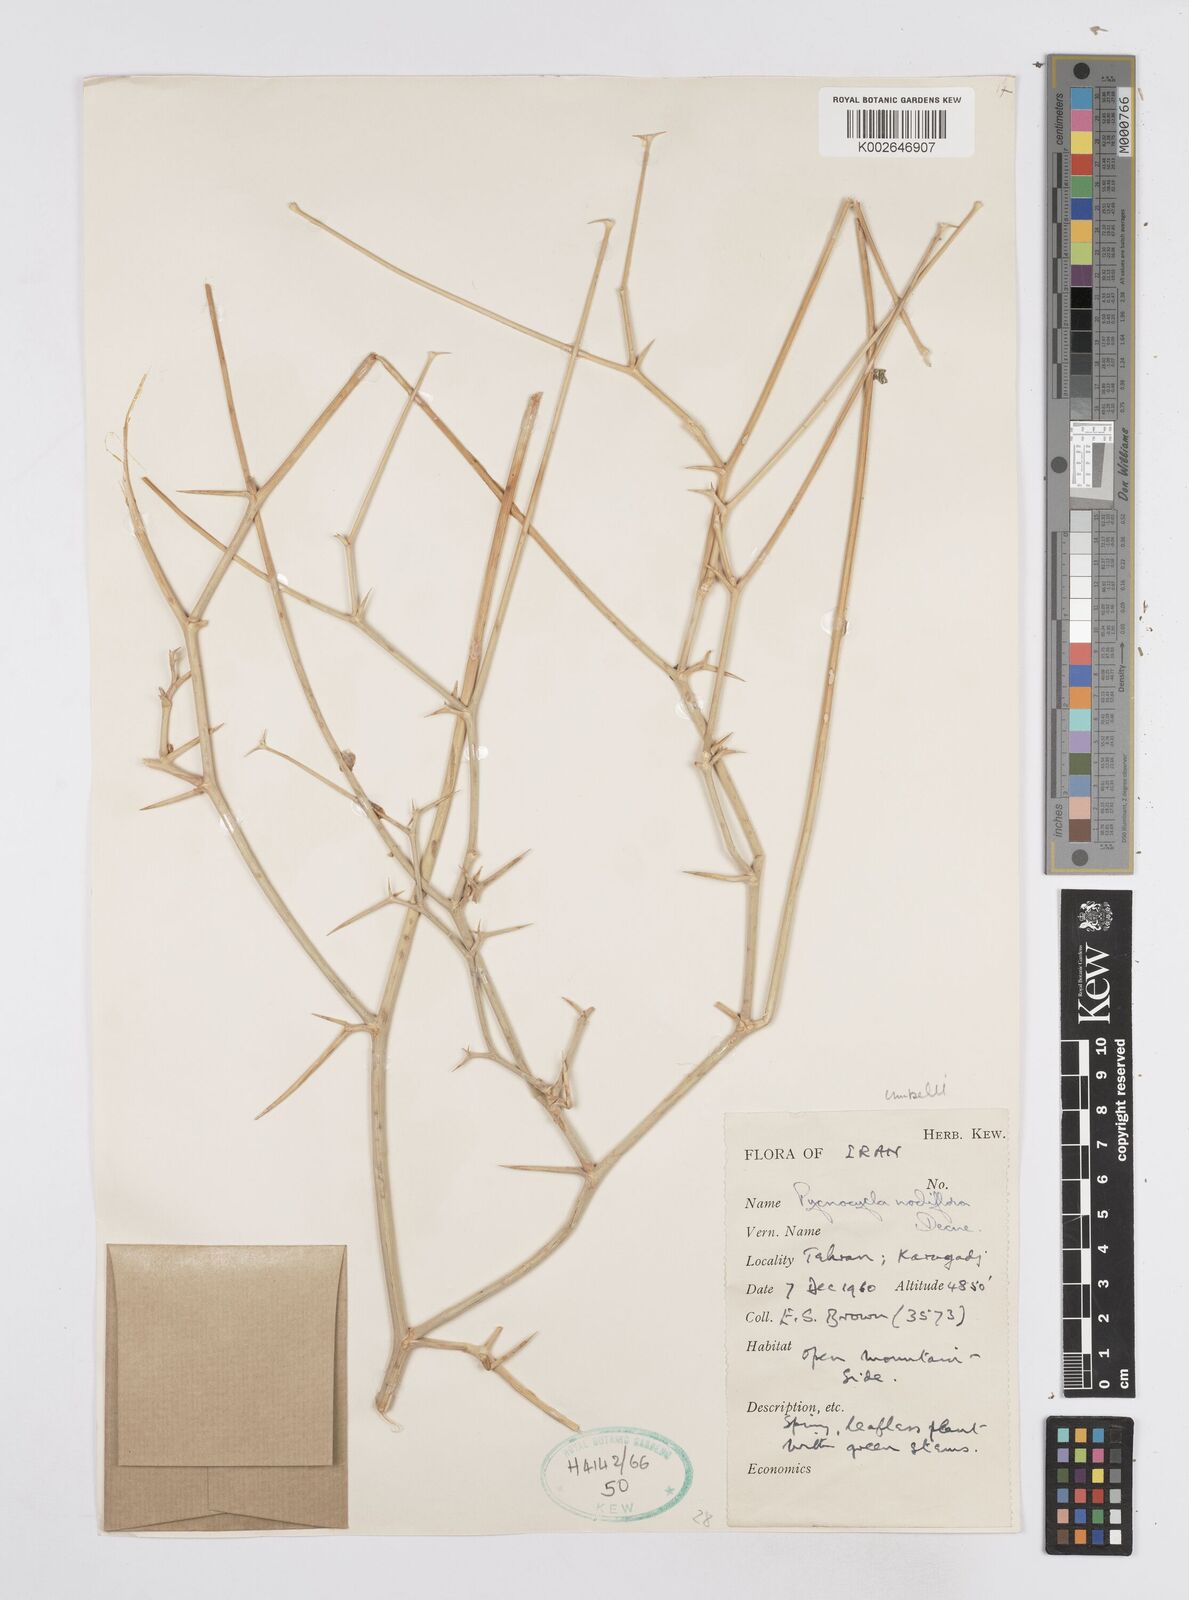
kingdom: Plantae
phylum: Tracheophyta
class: Magnoliopsida
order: Apiales
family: Apiaceae
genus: Pycnocycla
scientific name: Pycnocycla nodiflora
